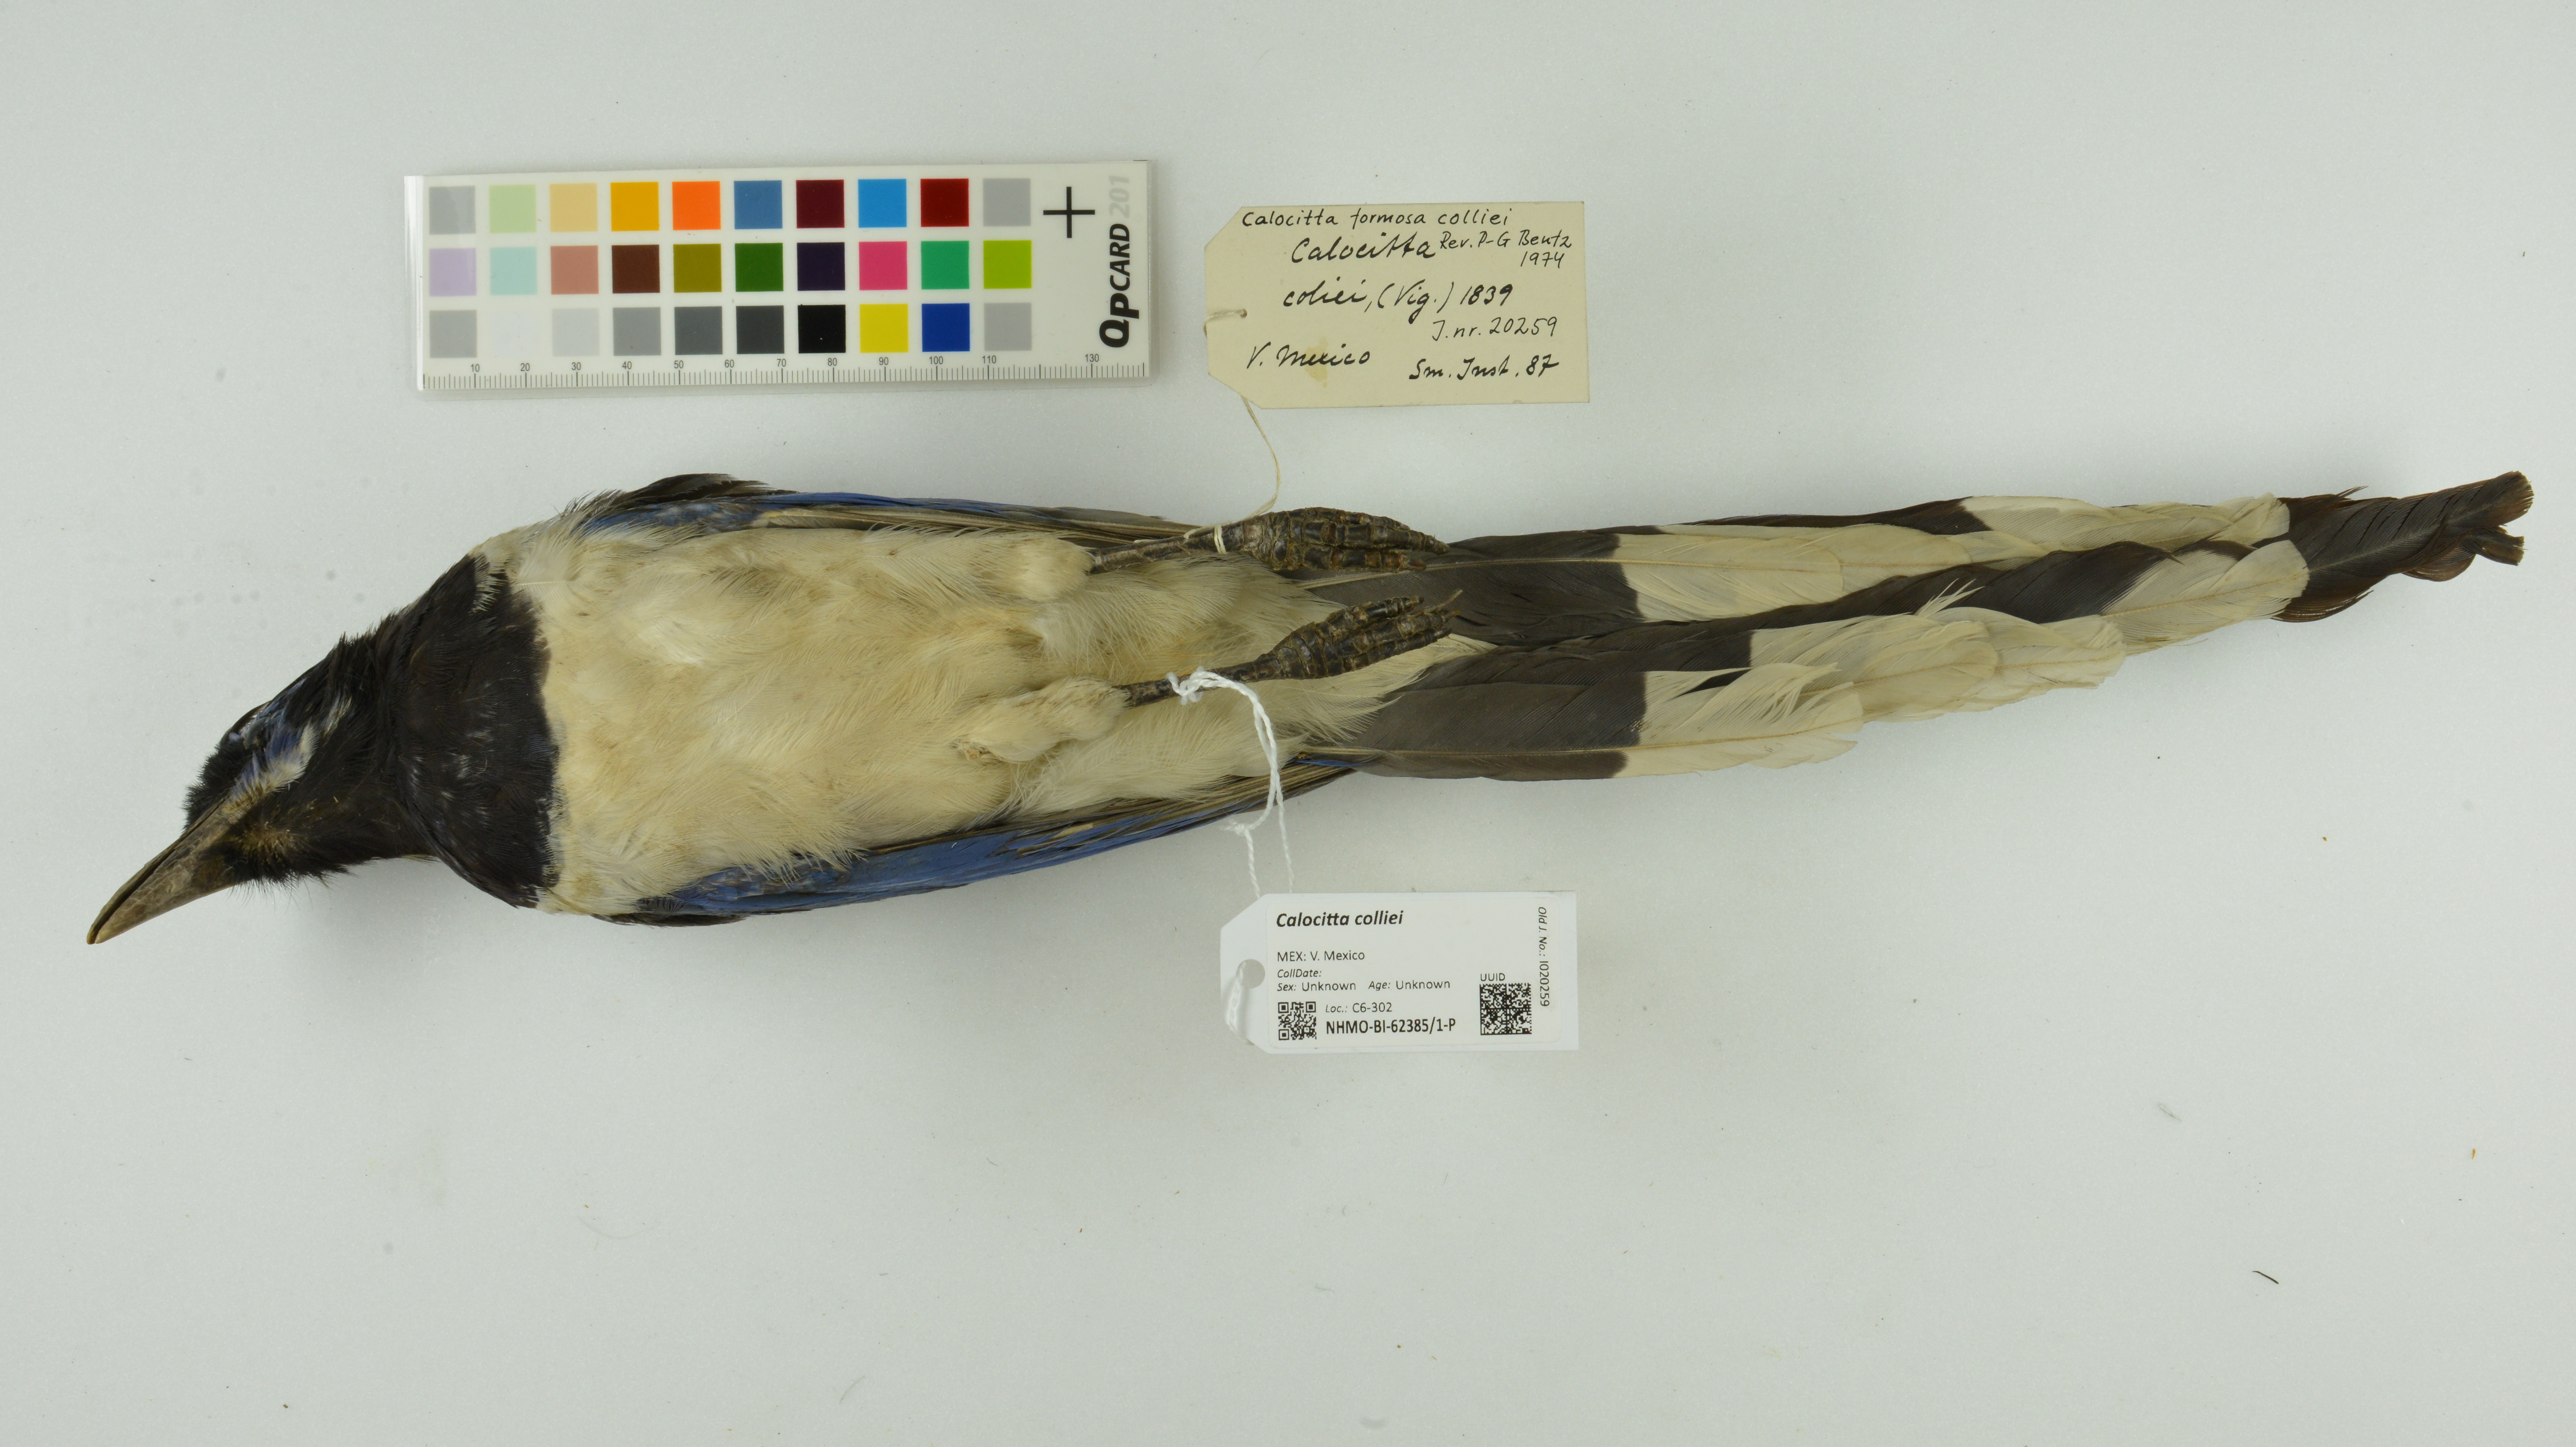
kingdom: Animalia
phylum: Chordata
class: Aves
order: Passeriformes
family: Corvidae
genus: Calocitta
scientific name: Calocitta colliei
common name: Black-throated magpie-jay
